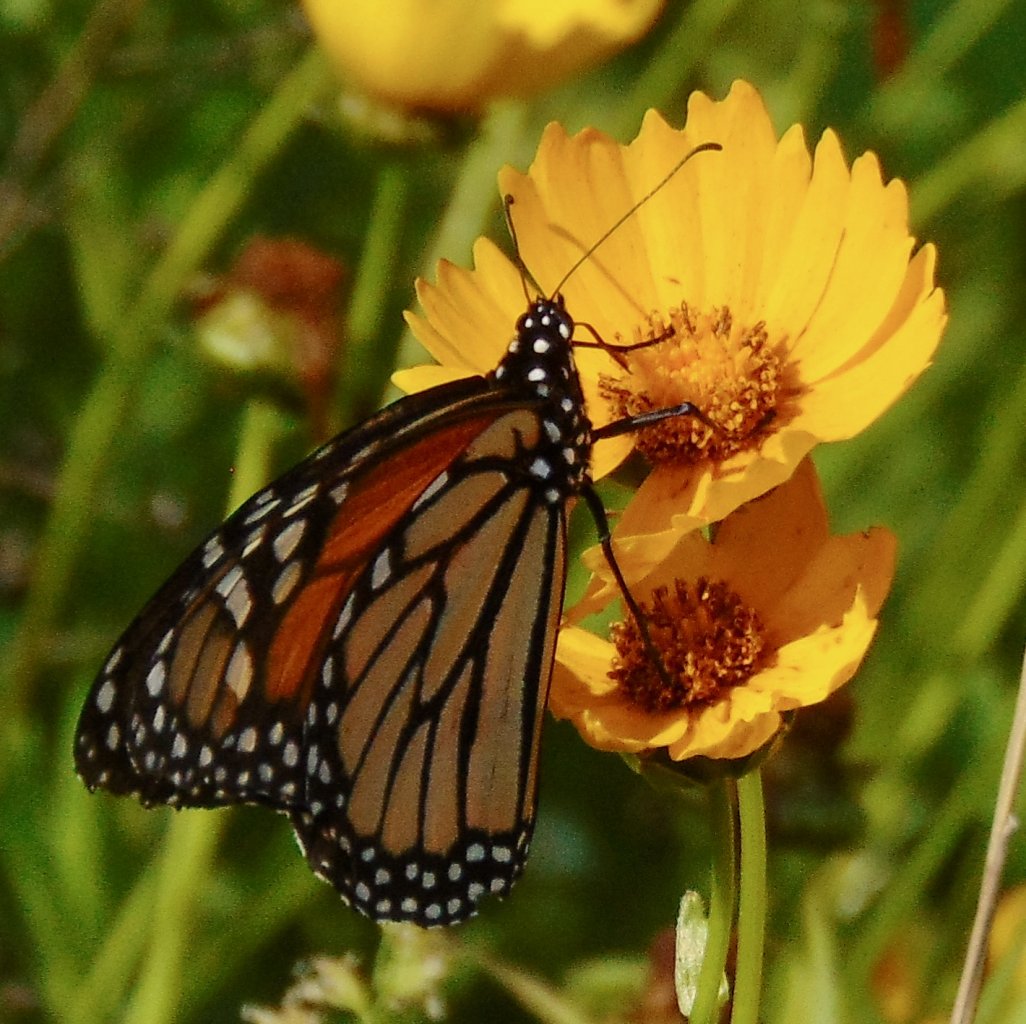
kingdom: Animalia
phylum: Arthropoda
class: Insecta
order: Lepidoptera
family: Nymphalidae
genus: Danaus
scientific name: Danaus plexippus
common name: Monarch
